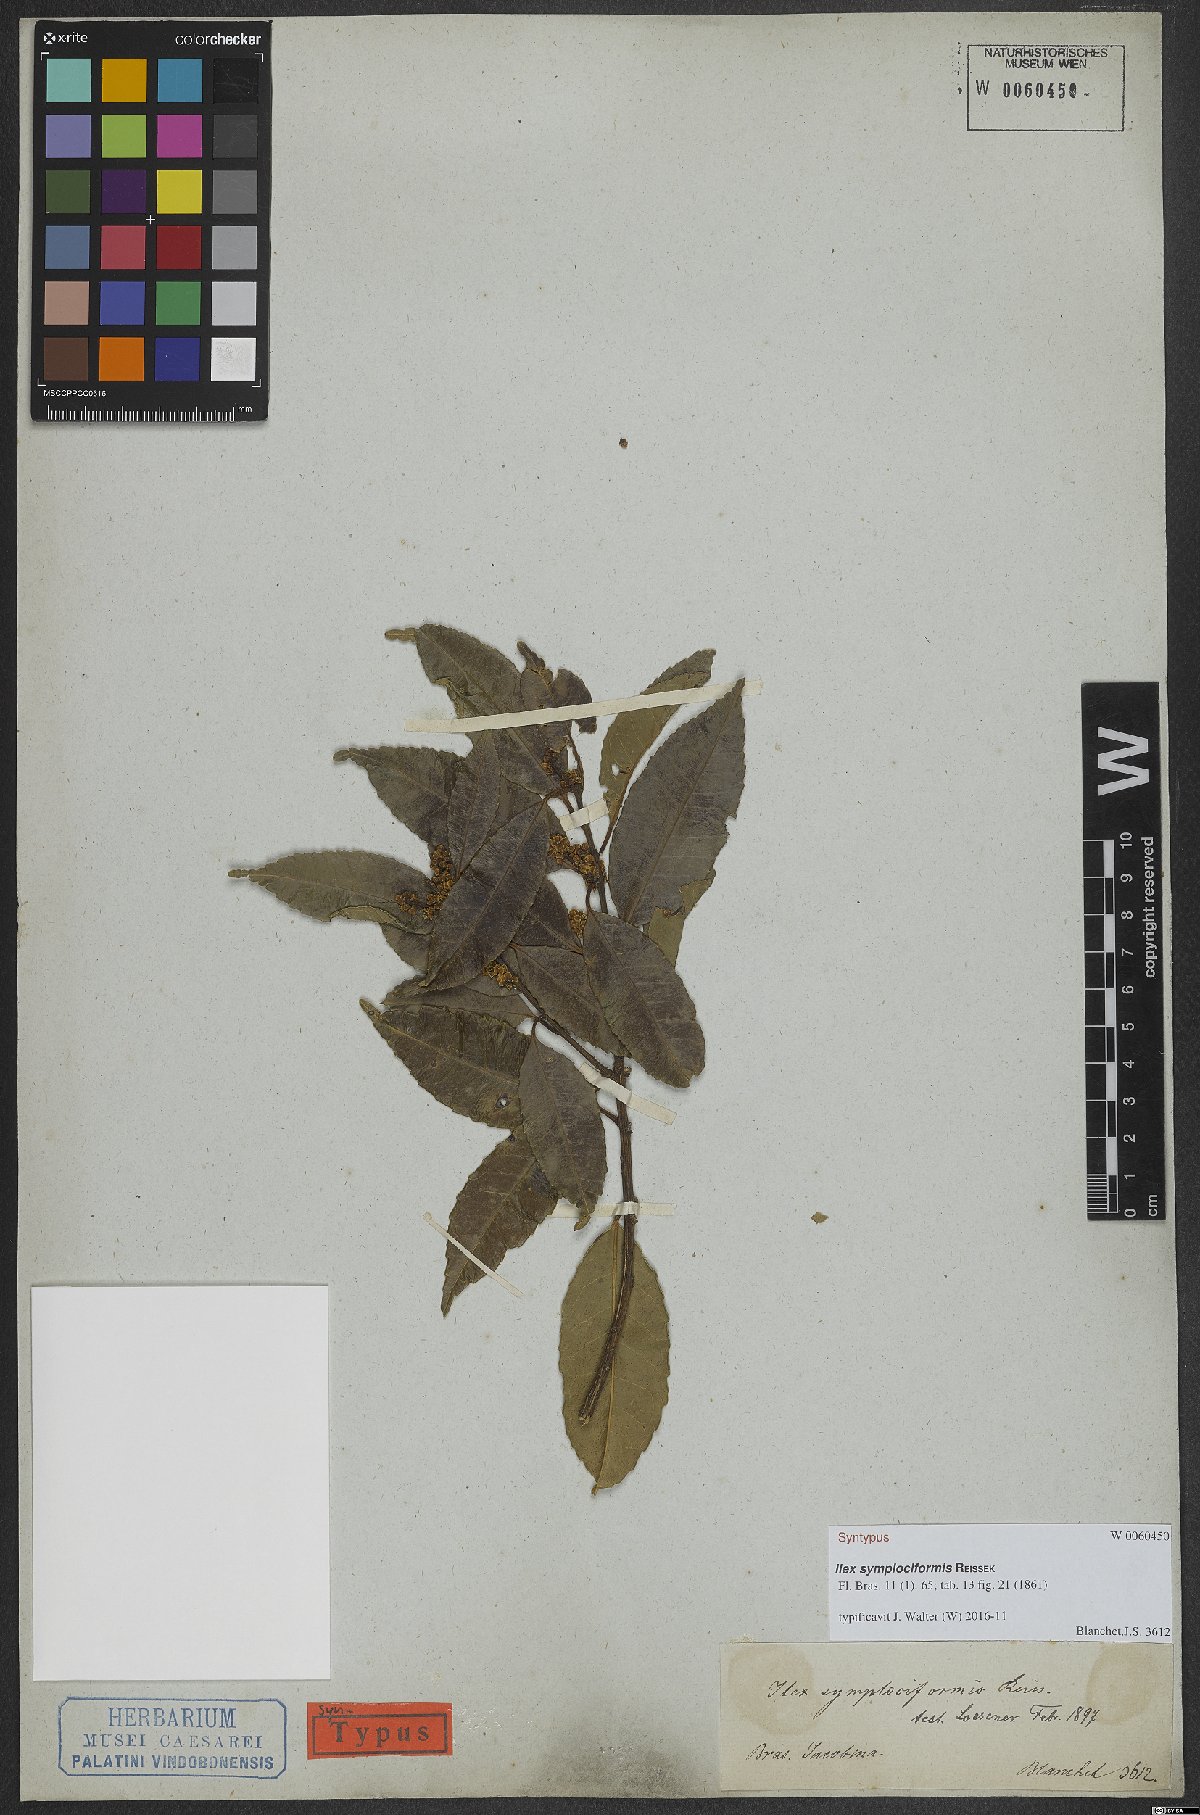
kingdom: Plantae
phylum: Tracheophyta
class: Magnoliopsida
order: Aquifoliales
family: Aquifoliaceae
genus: Ilex
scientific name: Ilex symplociformis
